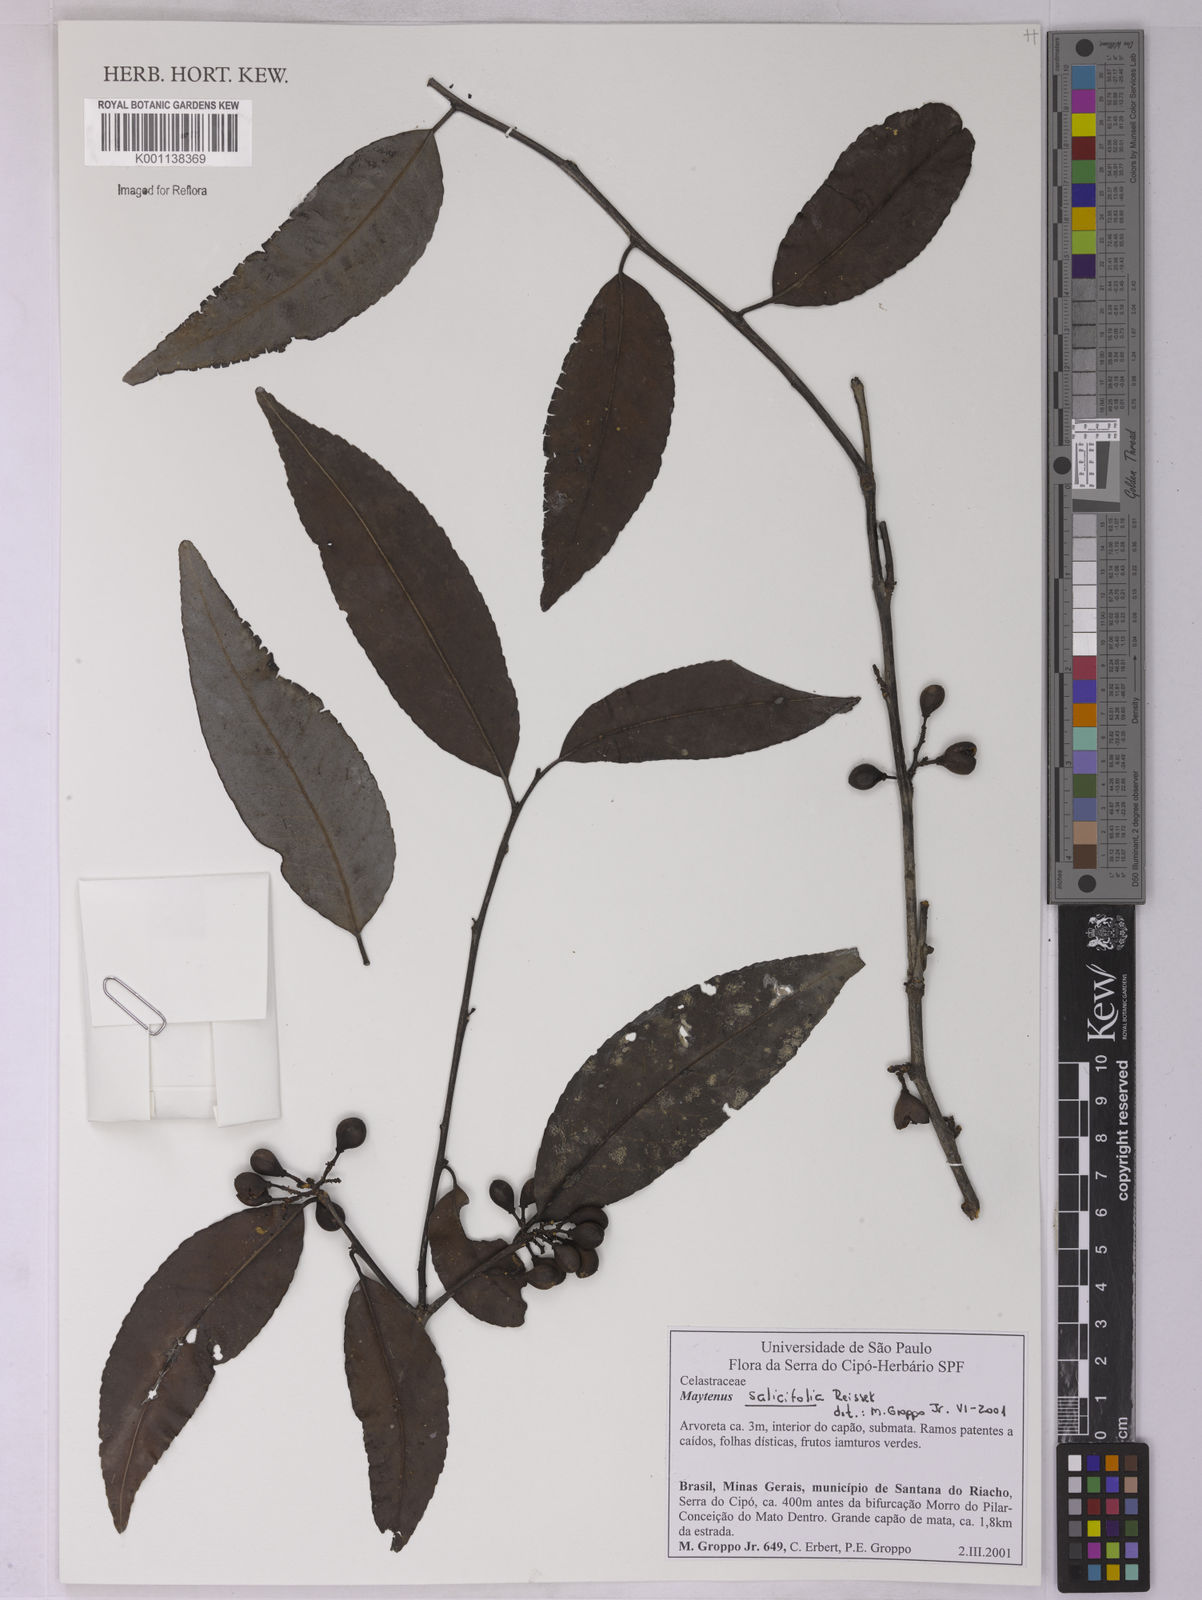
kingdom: Plantae
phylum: Tracheophyta
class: Magnoliopsida
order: Celastrales
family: Celastraceae
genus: Maytenus
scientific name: Maytenus salicifolia
